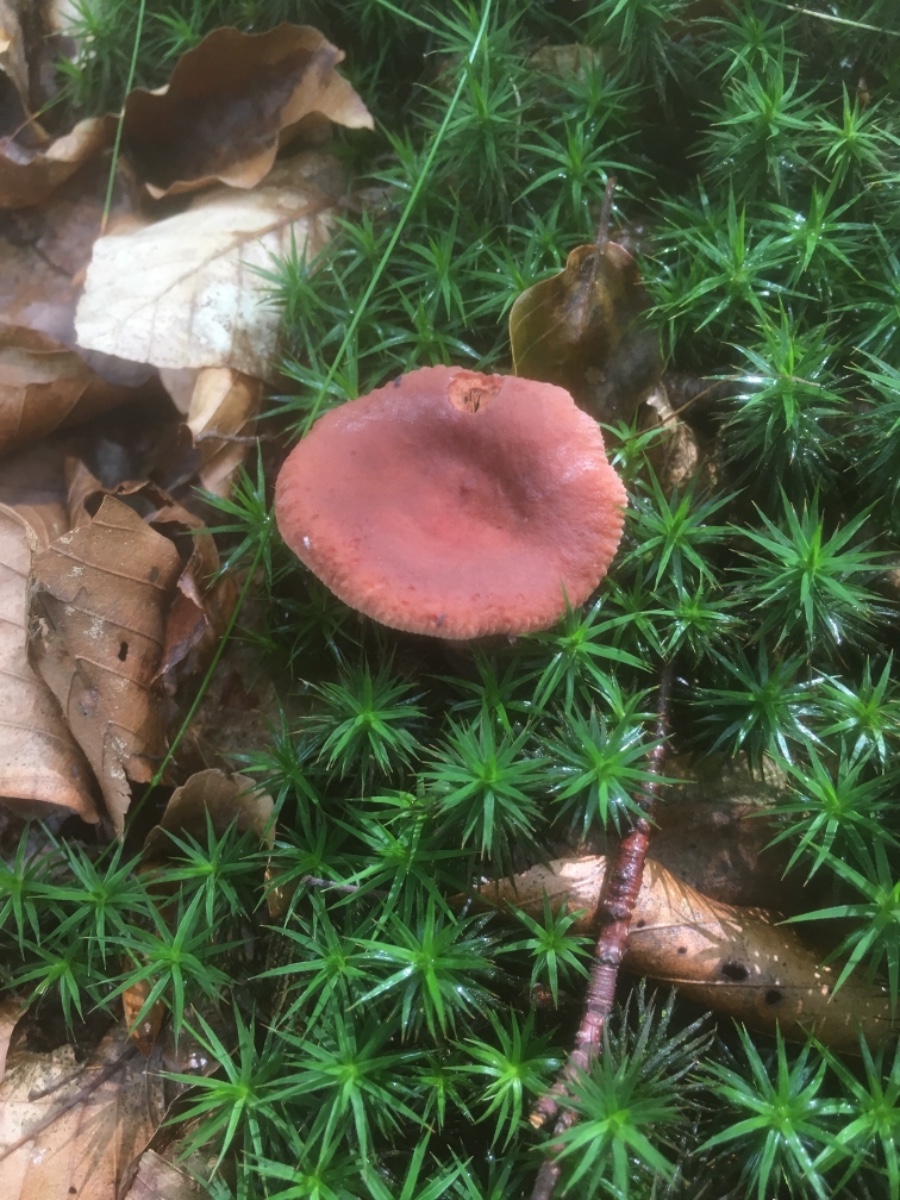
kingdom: Fungi
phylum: Basidiomycota
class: Agaricomycetes
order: Russulales
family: Russulaceae
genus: Lactarius
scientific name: Lactarius camphoratus
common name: kamfer-mælkehat
